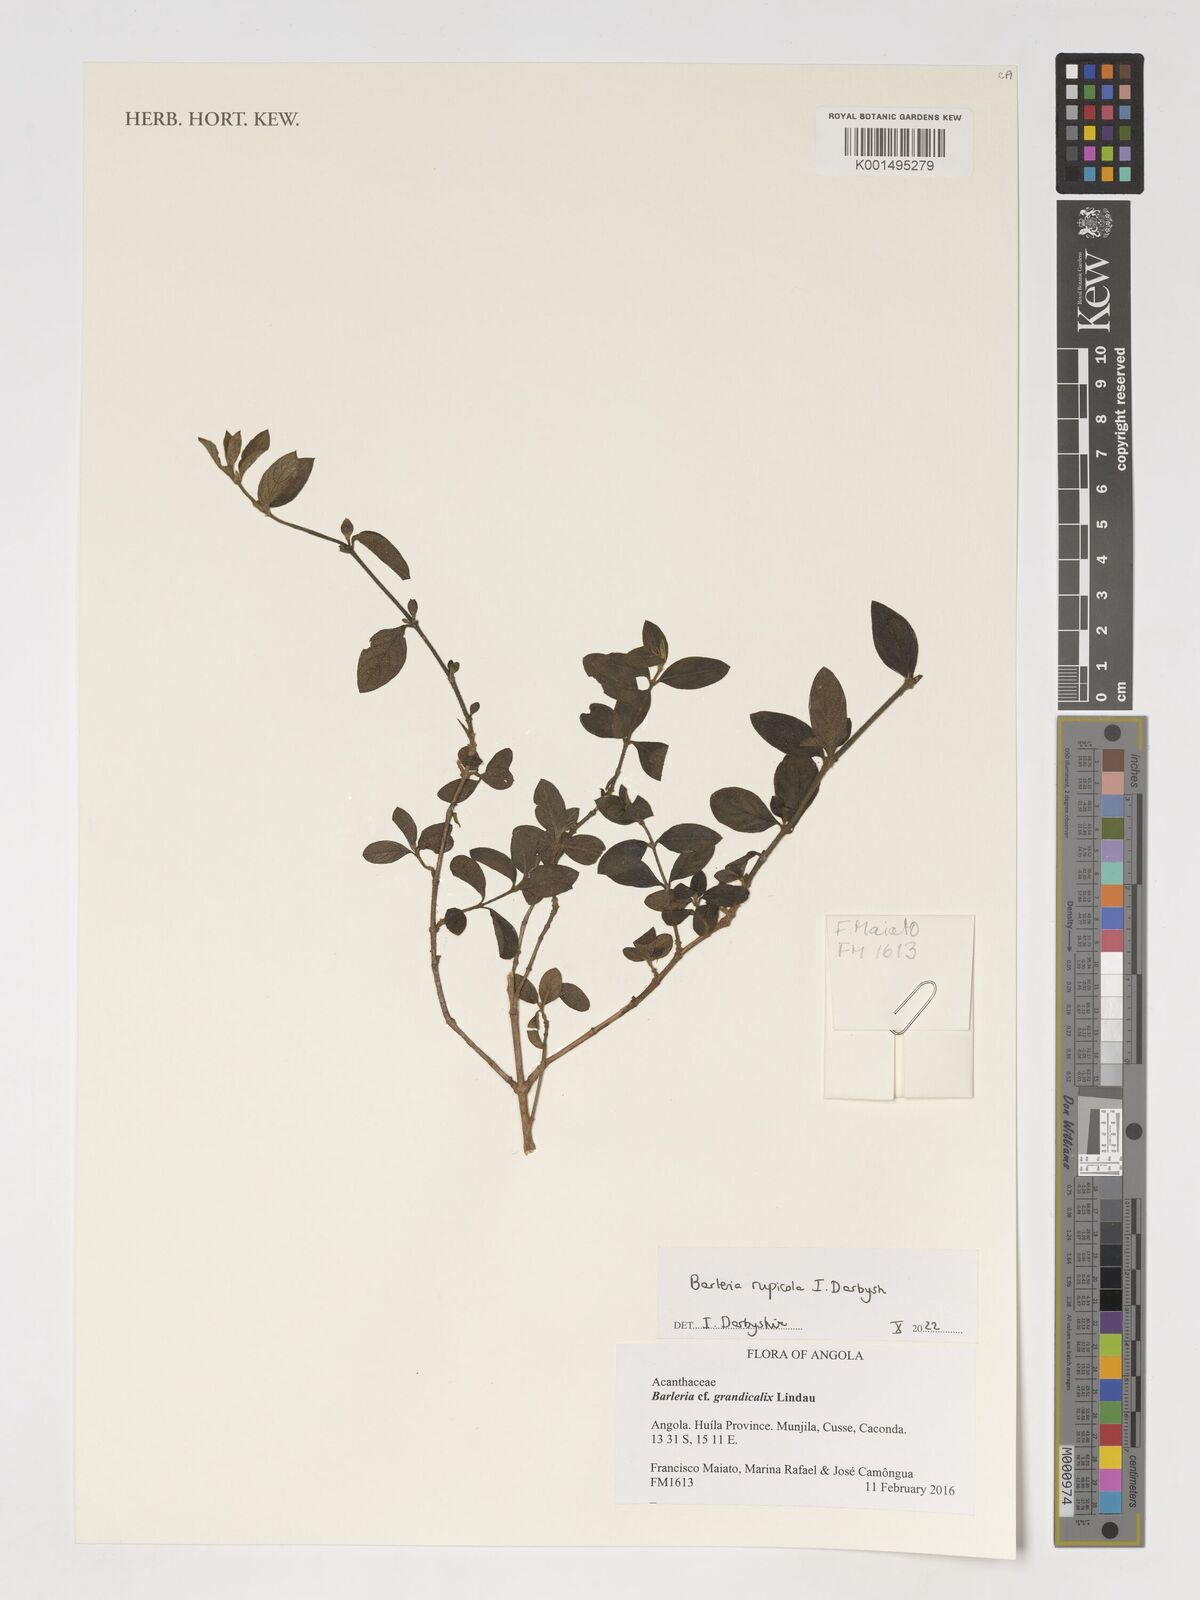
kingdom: Plantae
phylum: Tracheophyta
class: Magnoliopsida
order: Lamiales
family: Acanthaceae
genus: Barleria
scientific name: Barleria
